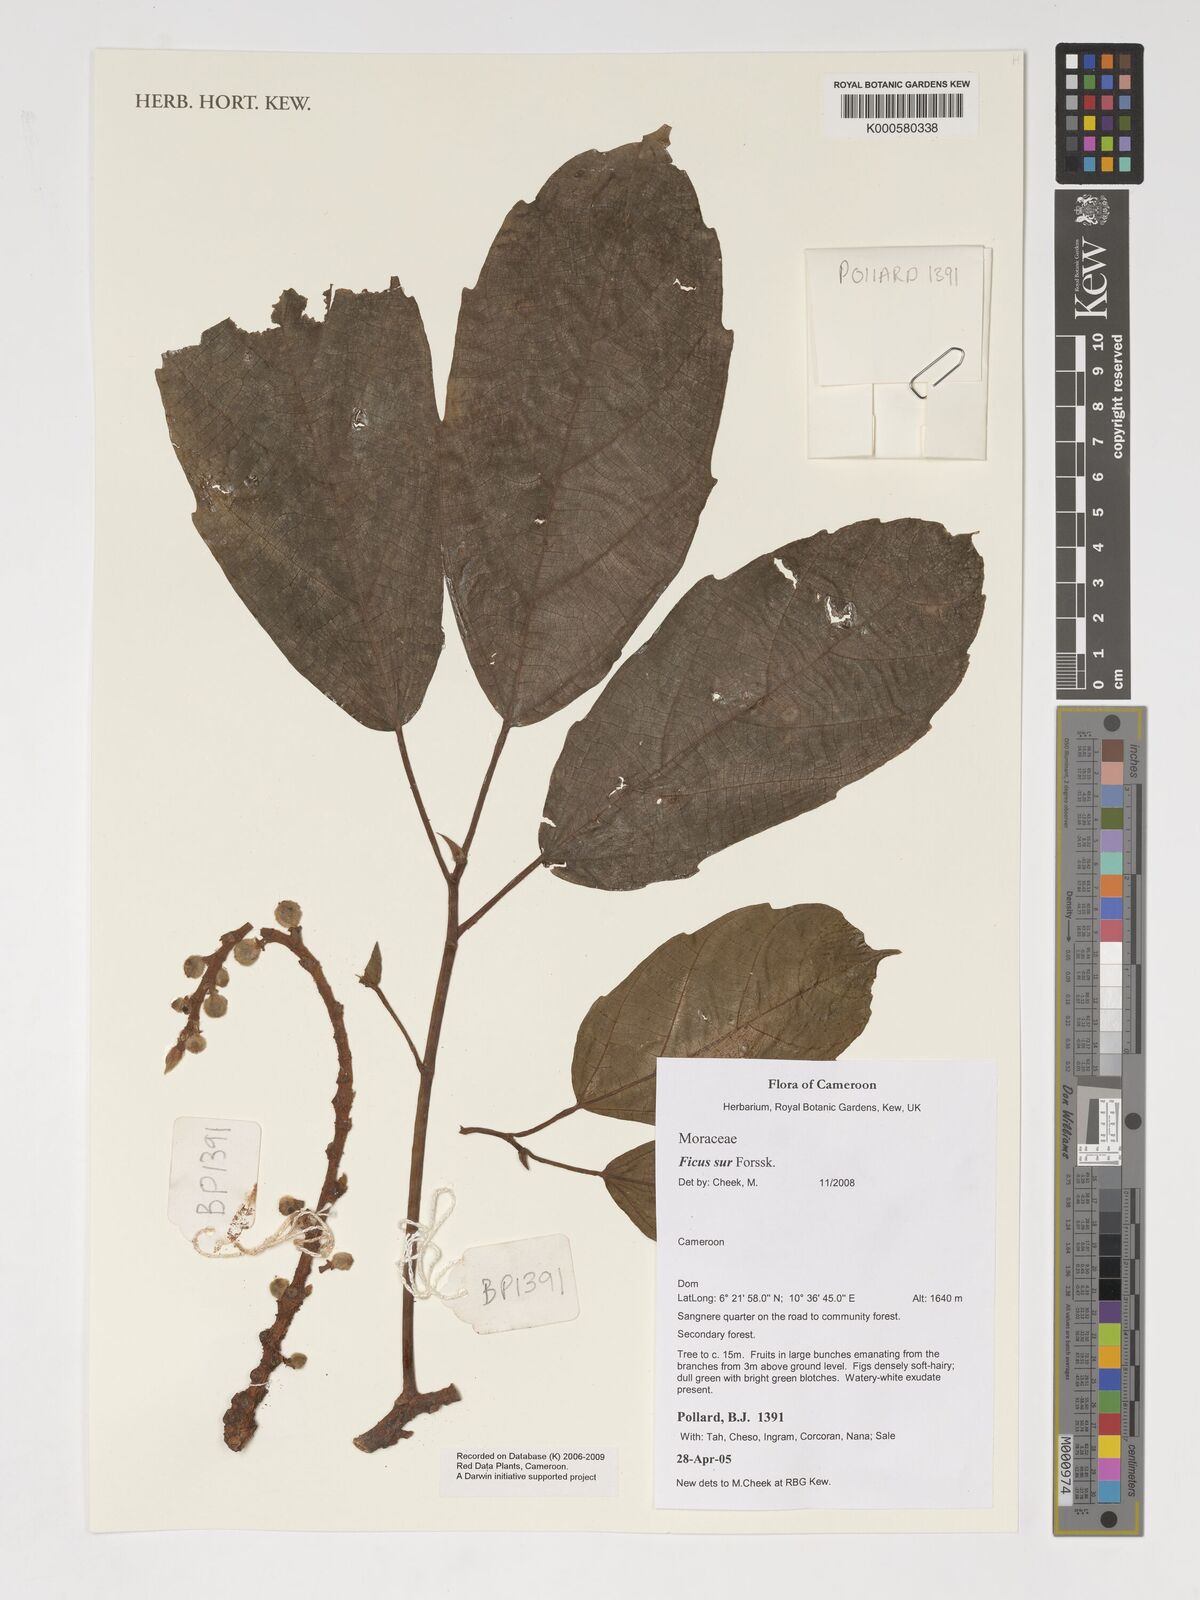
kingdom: Plantae
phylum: Tracheophyta
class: Magnoliopsida
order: Rosales
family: Moraceae
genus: Ficus
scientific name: Ficus sur
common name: Cape fig
